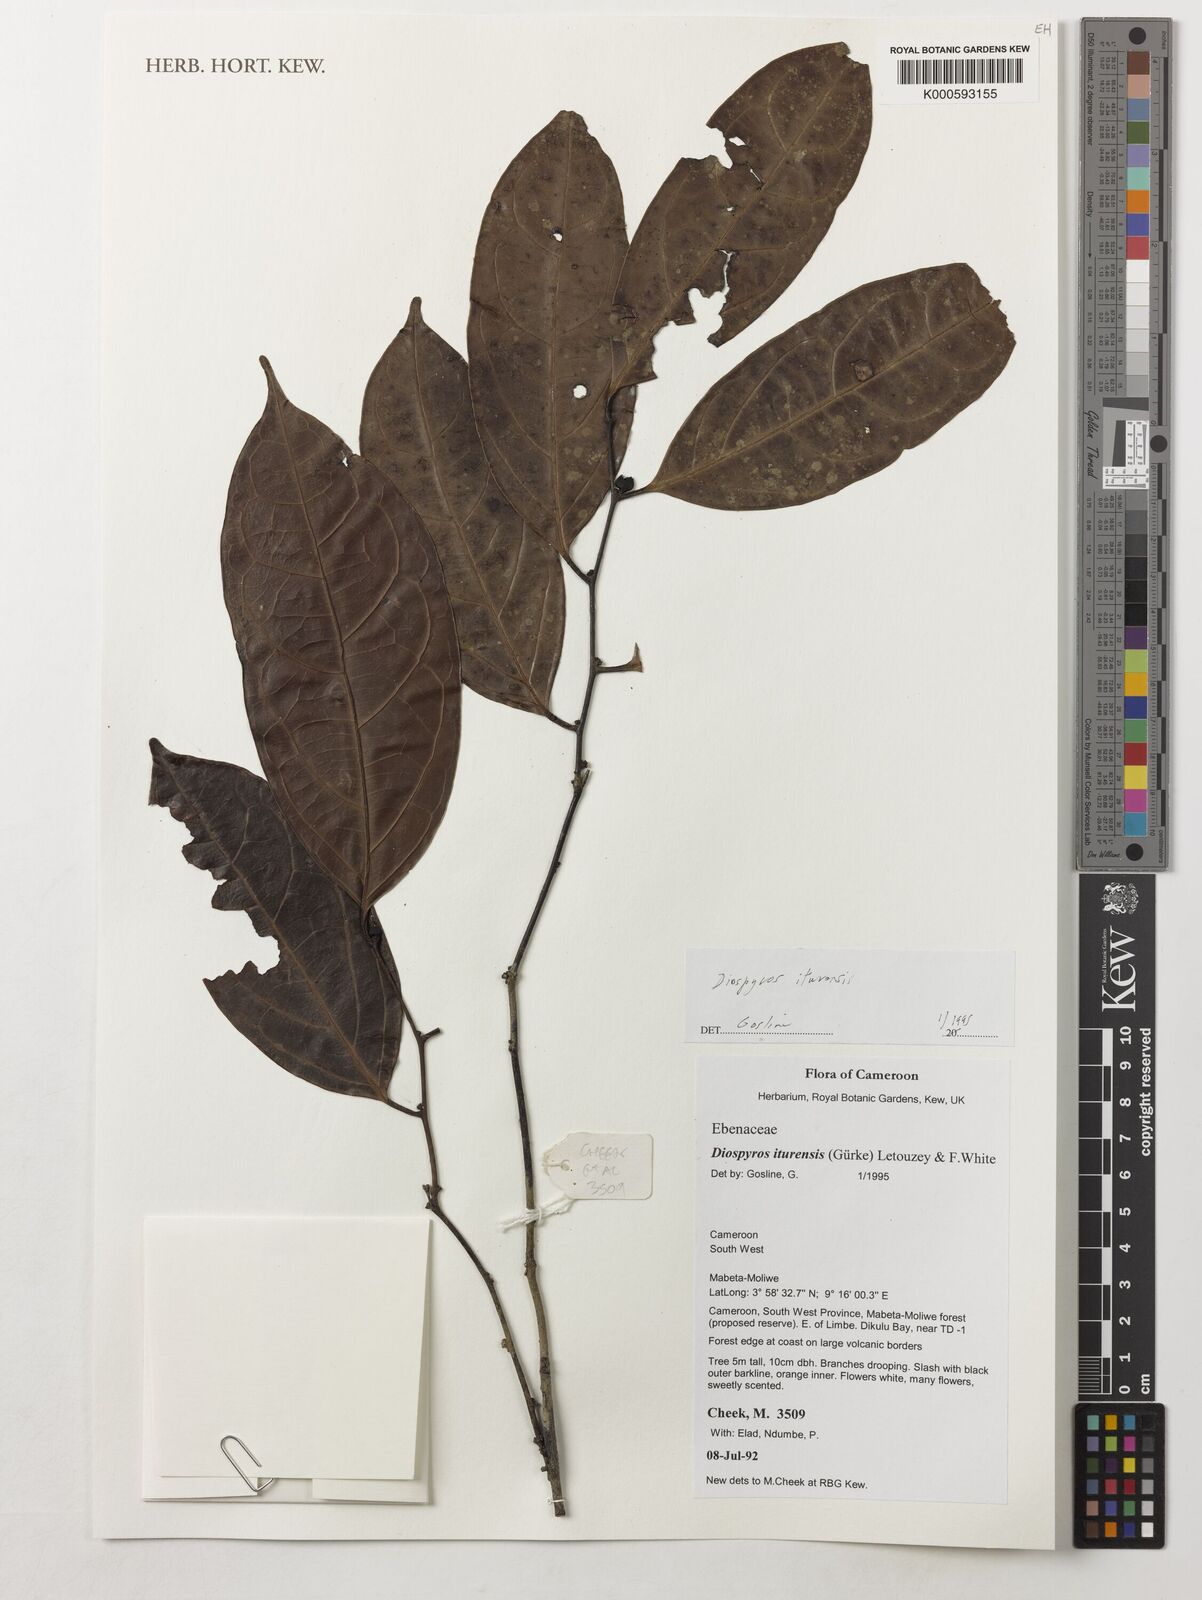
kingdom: Plantae
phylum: Tracheophyta
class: Magnoliopsida
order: Ericales
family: Ebenaceae
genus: Diospyros
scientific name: Diospyros iturensis
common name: Benin ebony
